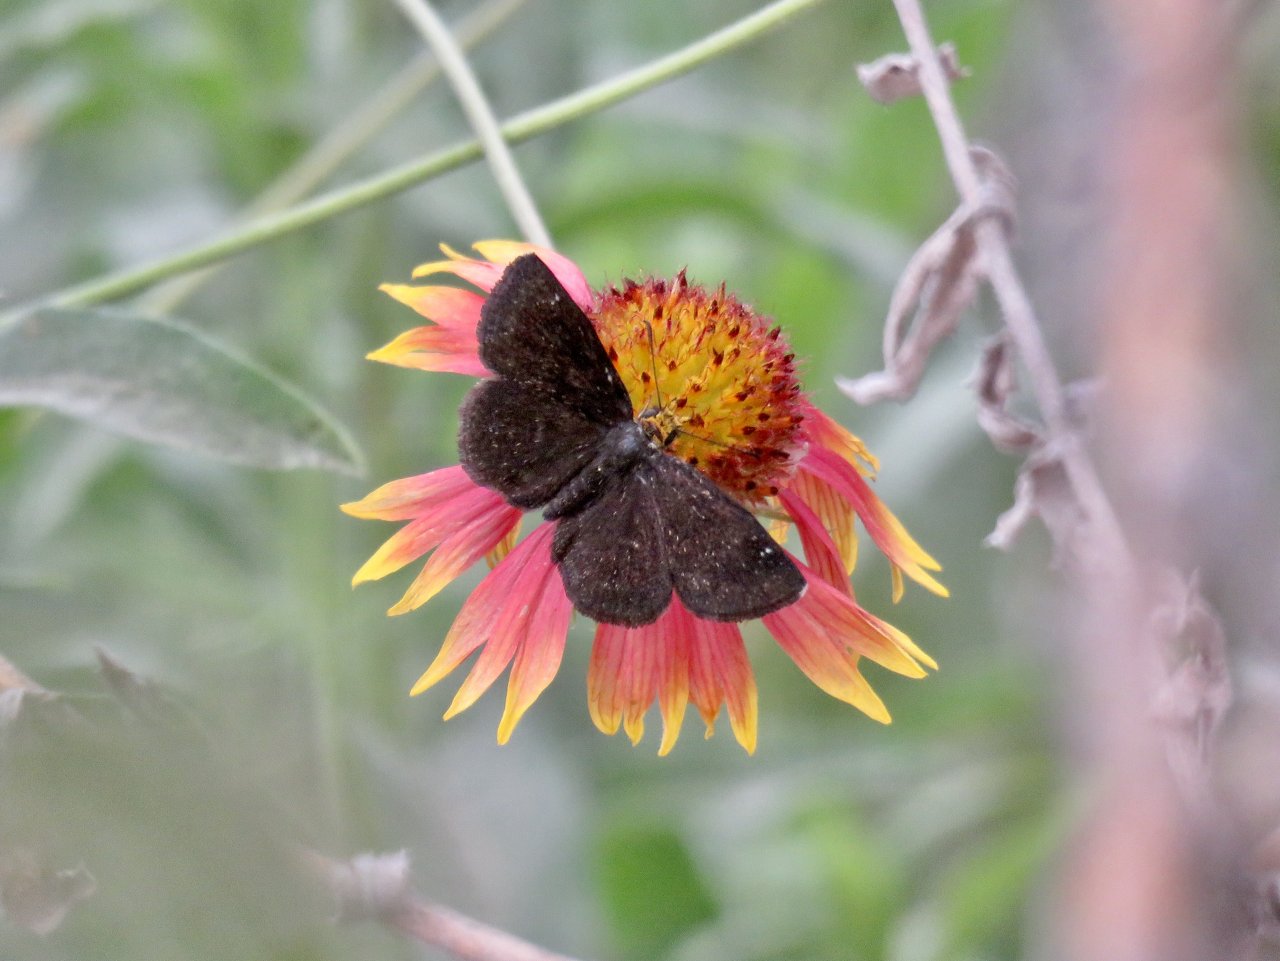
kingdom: Animalia
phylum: Arthropoda
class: Insecta
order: Lepidoptera
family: Hesperiidae
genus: Staphylus
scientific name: Staphylus ceos
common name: Golden-headed Scallopwing
